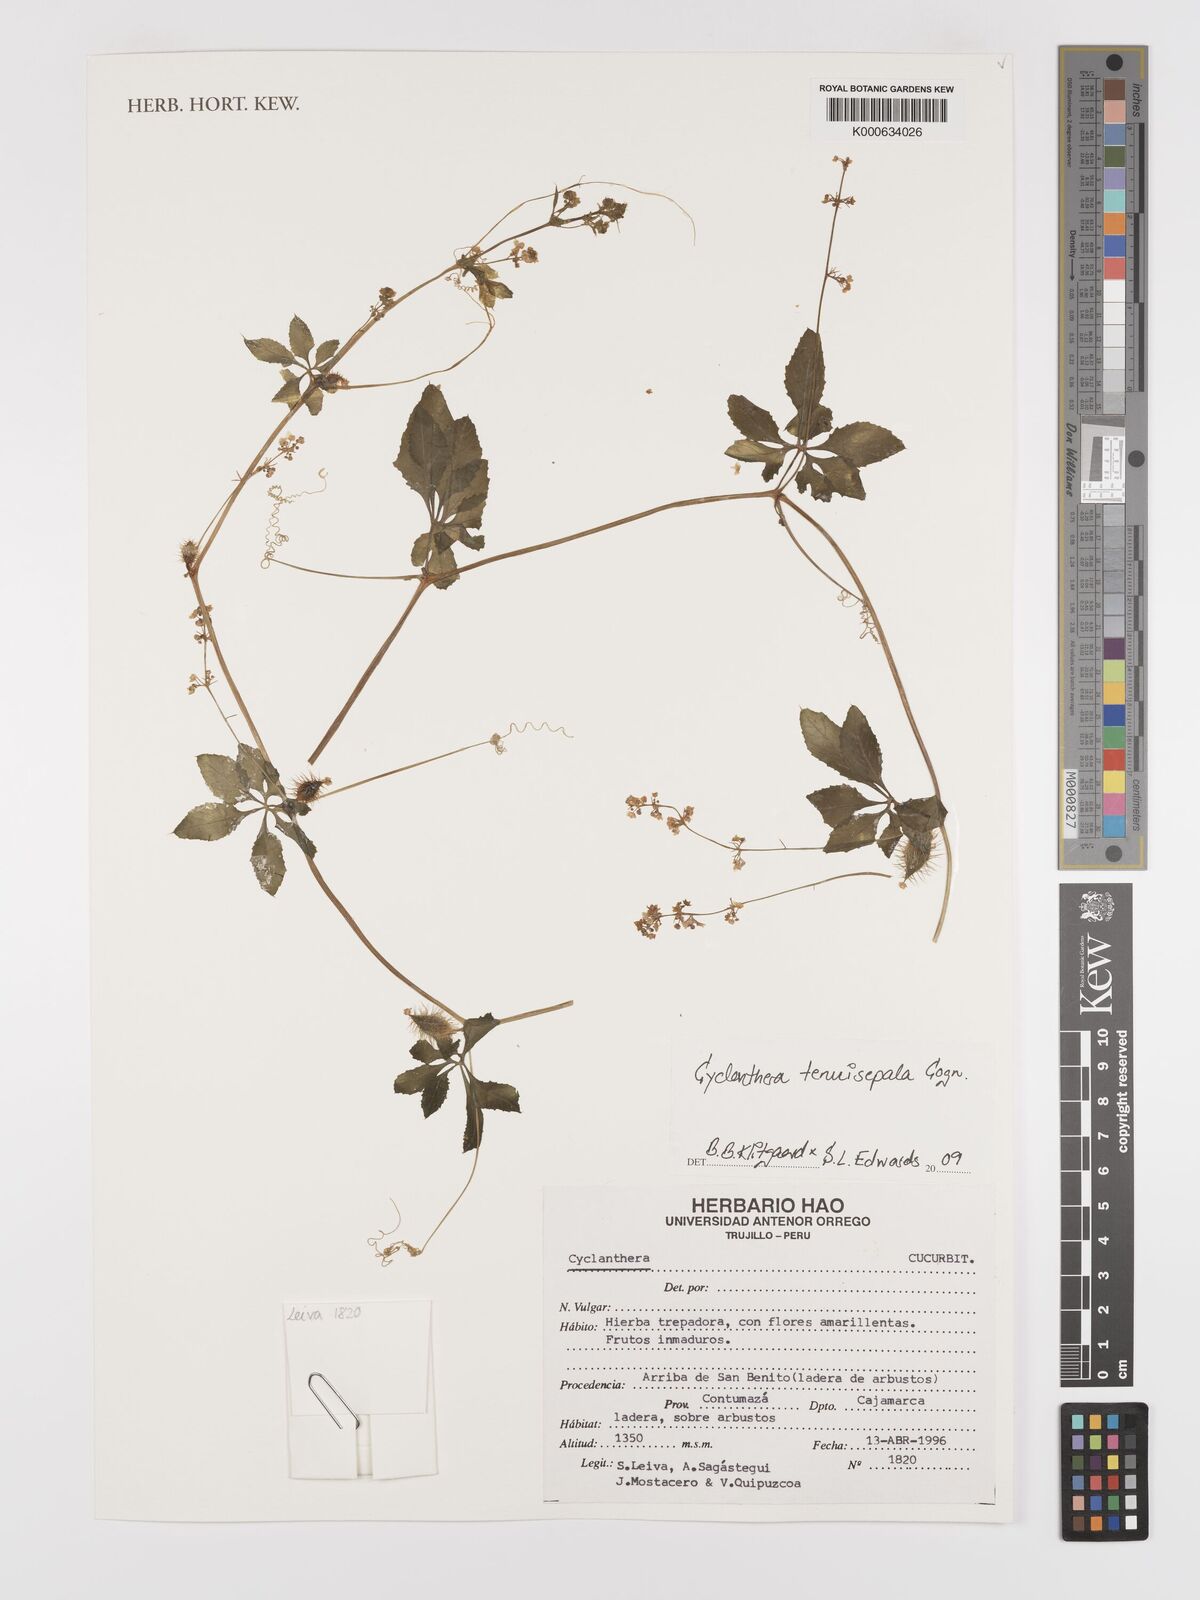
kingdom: Plantae
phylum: Tracheophyta
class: Magnoliopsida
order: Cucurbitales
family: Cucurbitaceae
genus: Cyclanthera
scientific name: Cyclanthera tenuisepala
